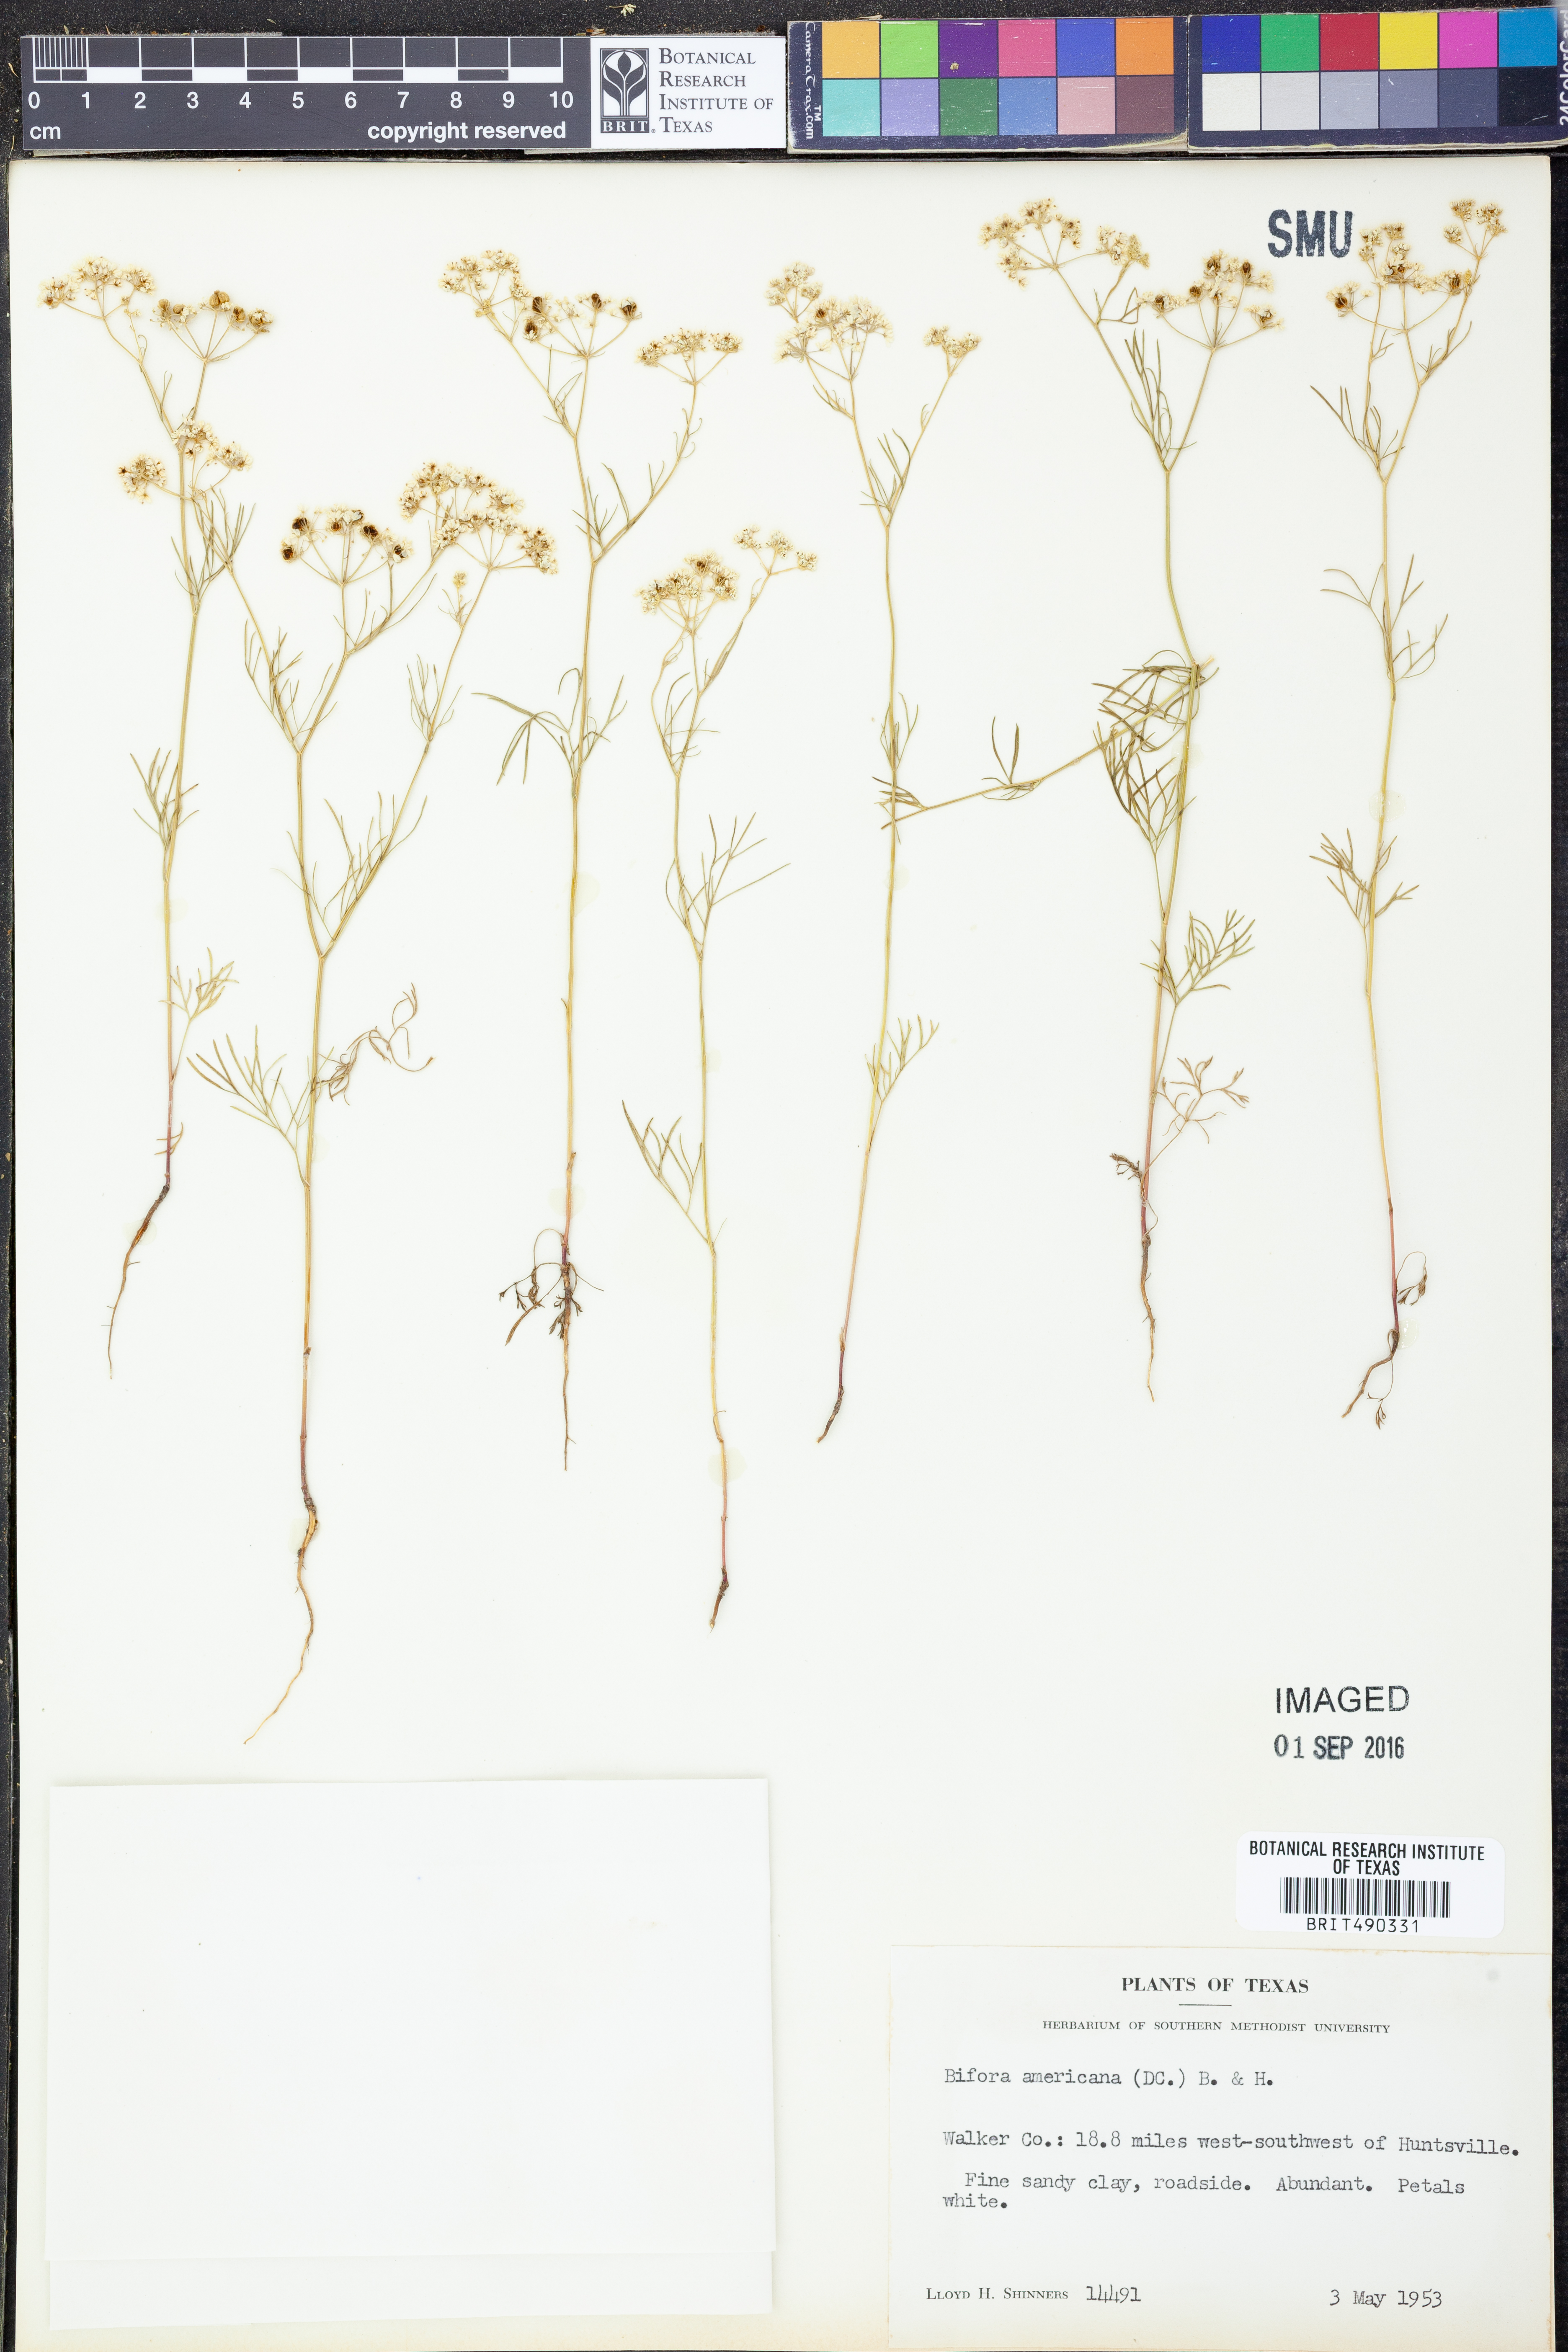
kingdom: Plantae
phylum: Tracheophyta
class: Magnoliopsida
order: Apiales
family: Apiaceae
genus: Atrema
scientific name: Atrema americanum
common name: Prairie-bishop
